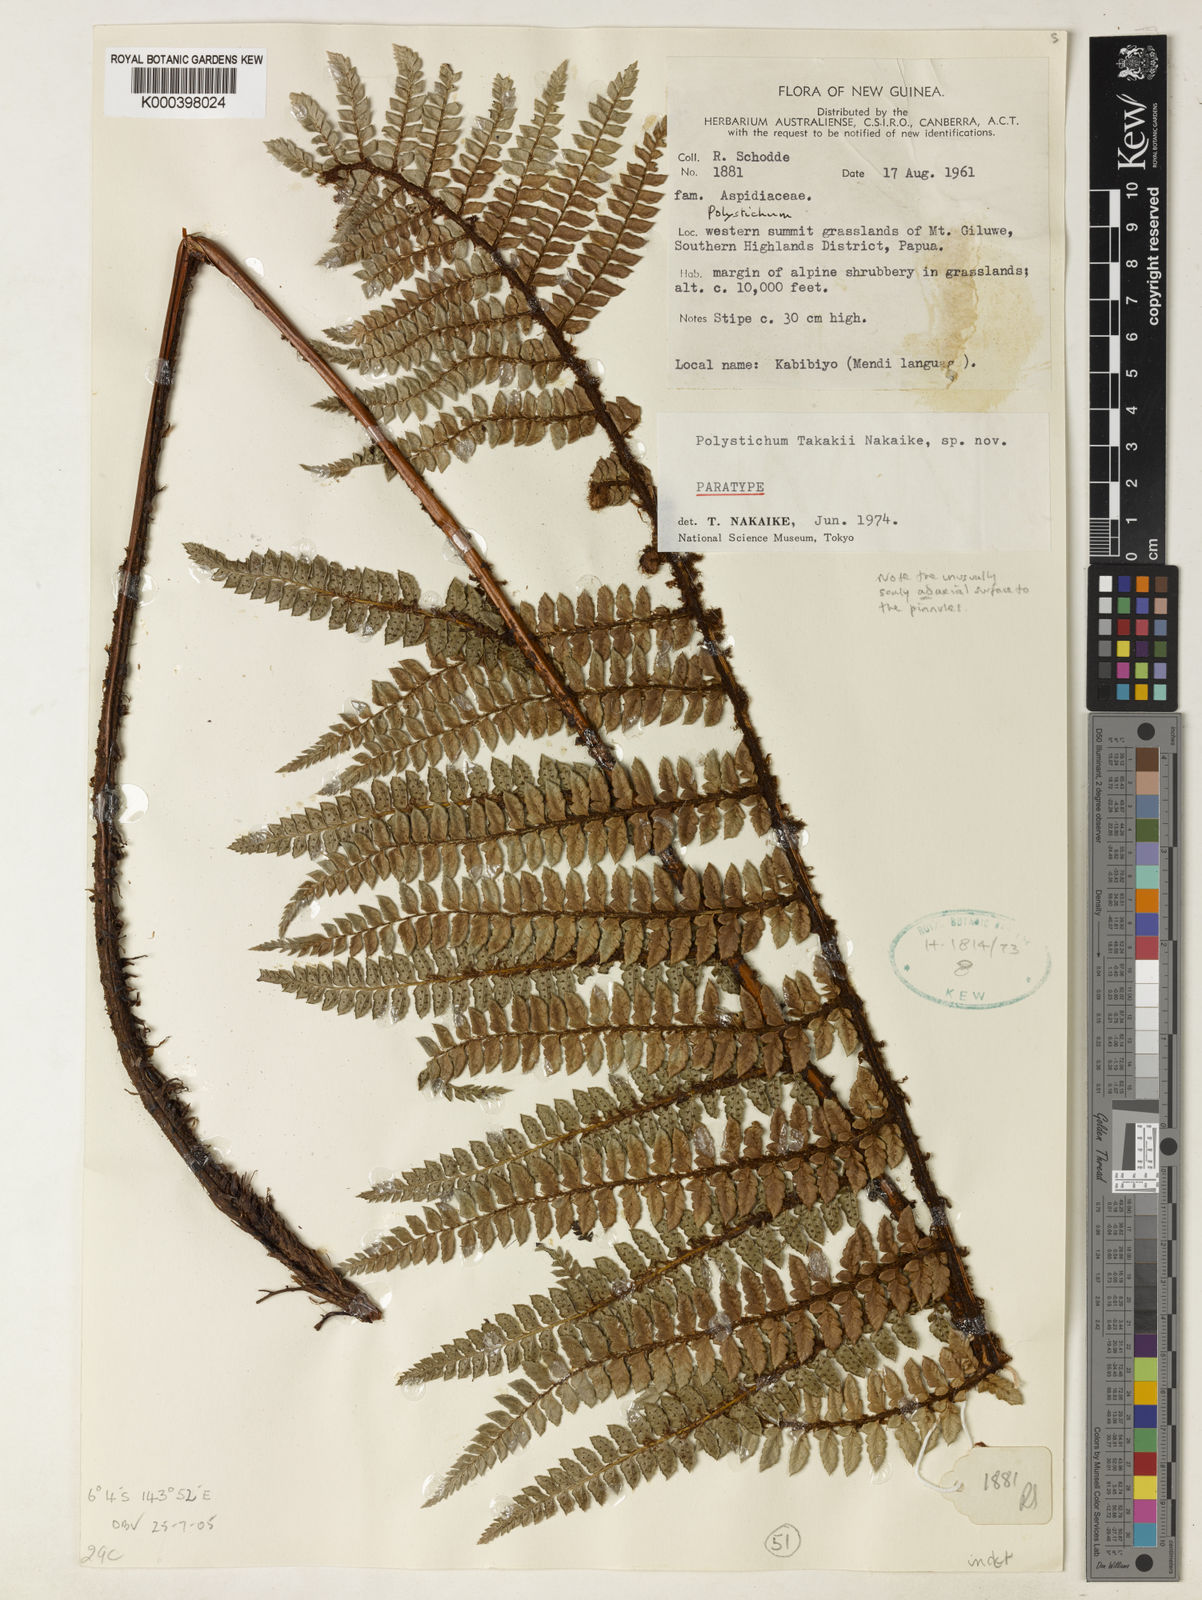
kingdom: Plantae
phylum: Tracheophyta
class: Polypodiopsida
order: Polypodiales
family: Dryopteridaceae
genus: Polystichum
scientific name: Polystichum takakii
